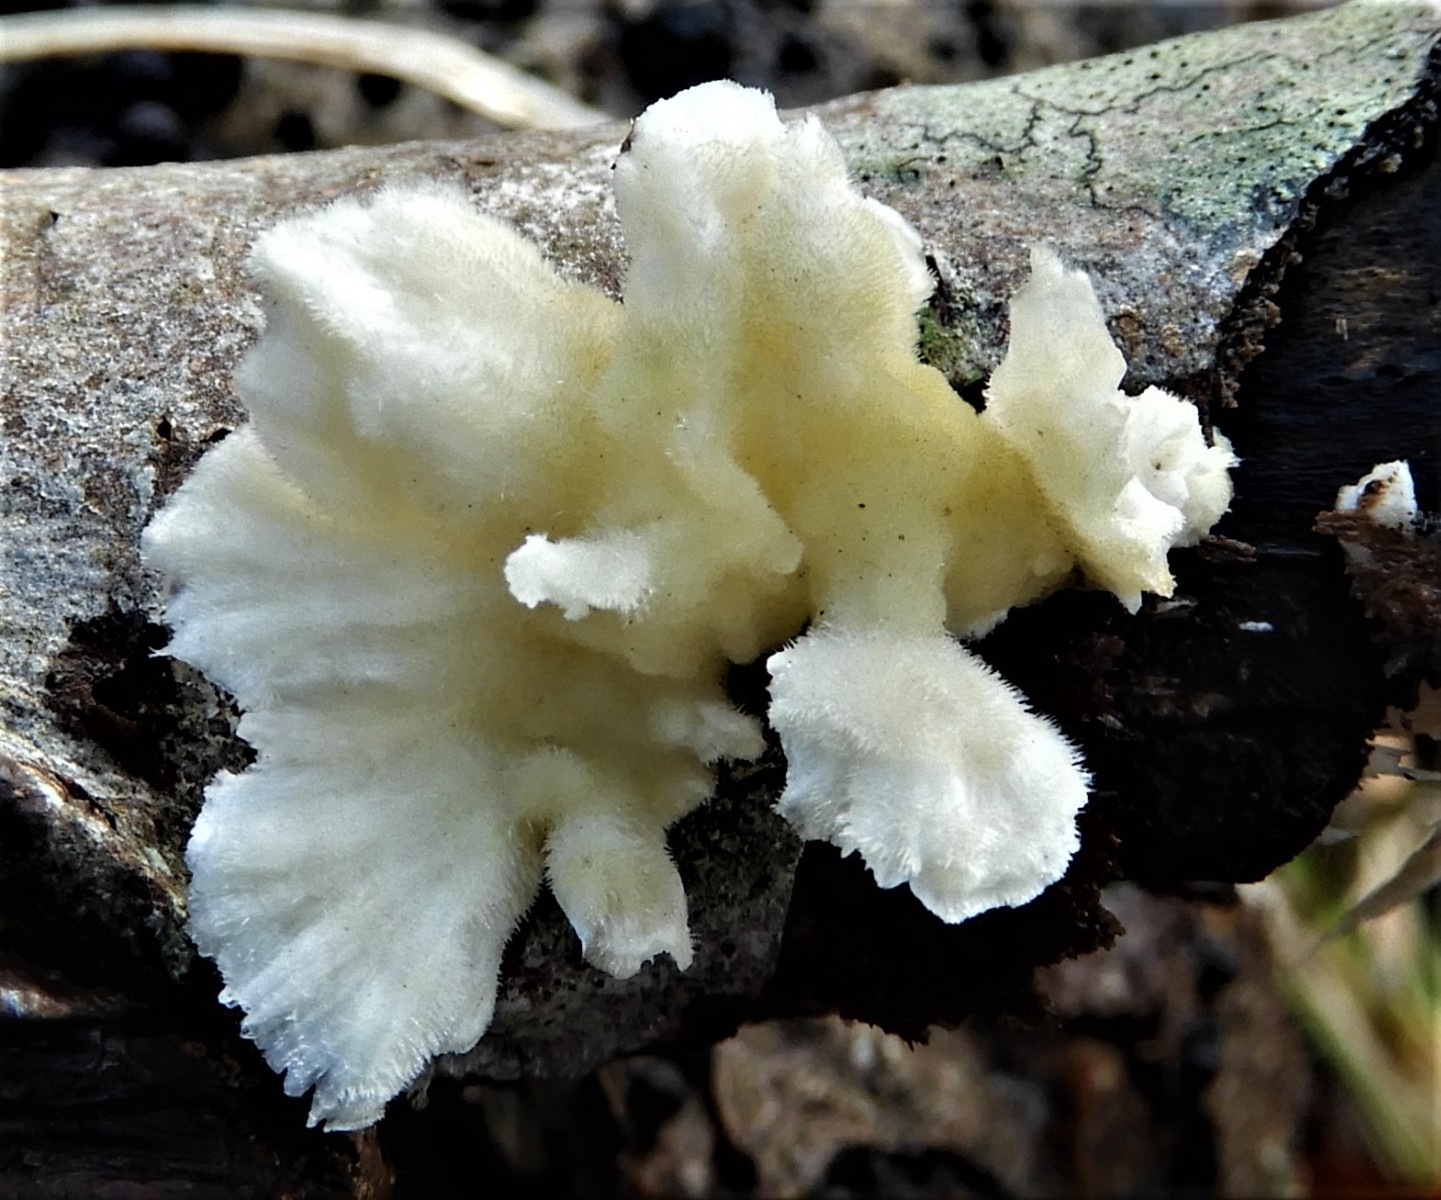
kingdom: Fungi
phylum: Basidiomycota
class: Agaricomycetes
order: Polyporales
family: Polyporaceae
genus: Trametes
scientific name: Trametes hirsuta
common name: håret læderporesvamp
